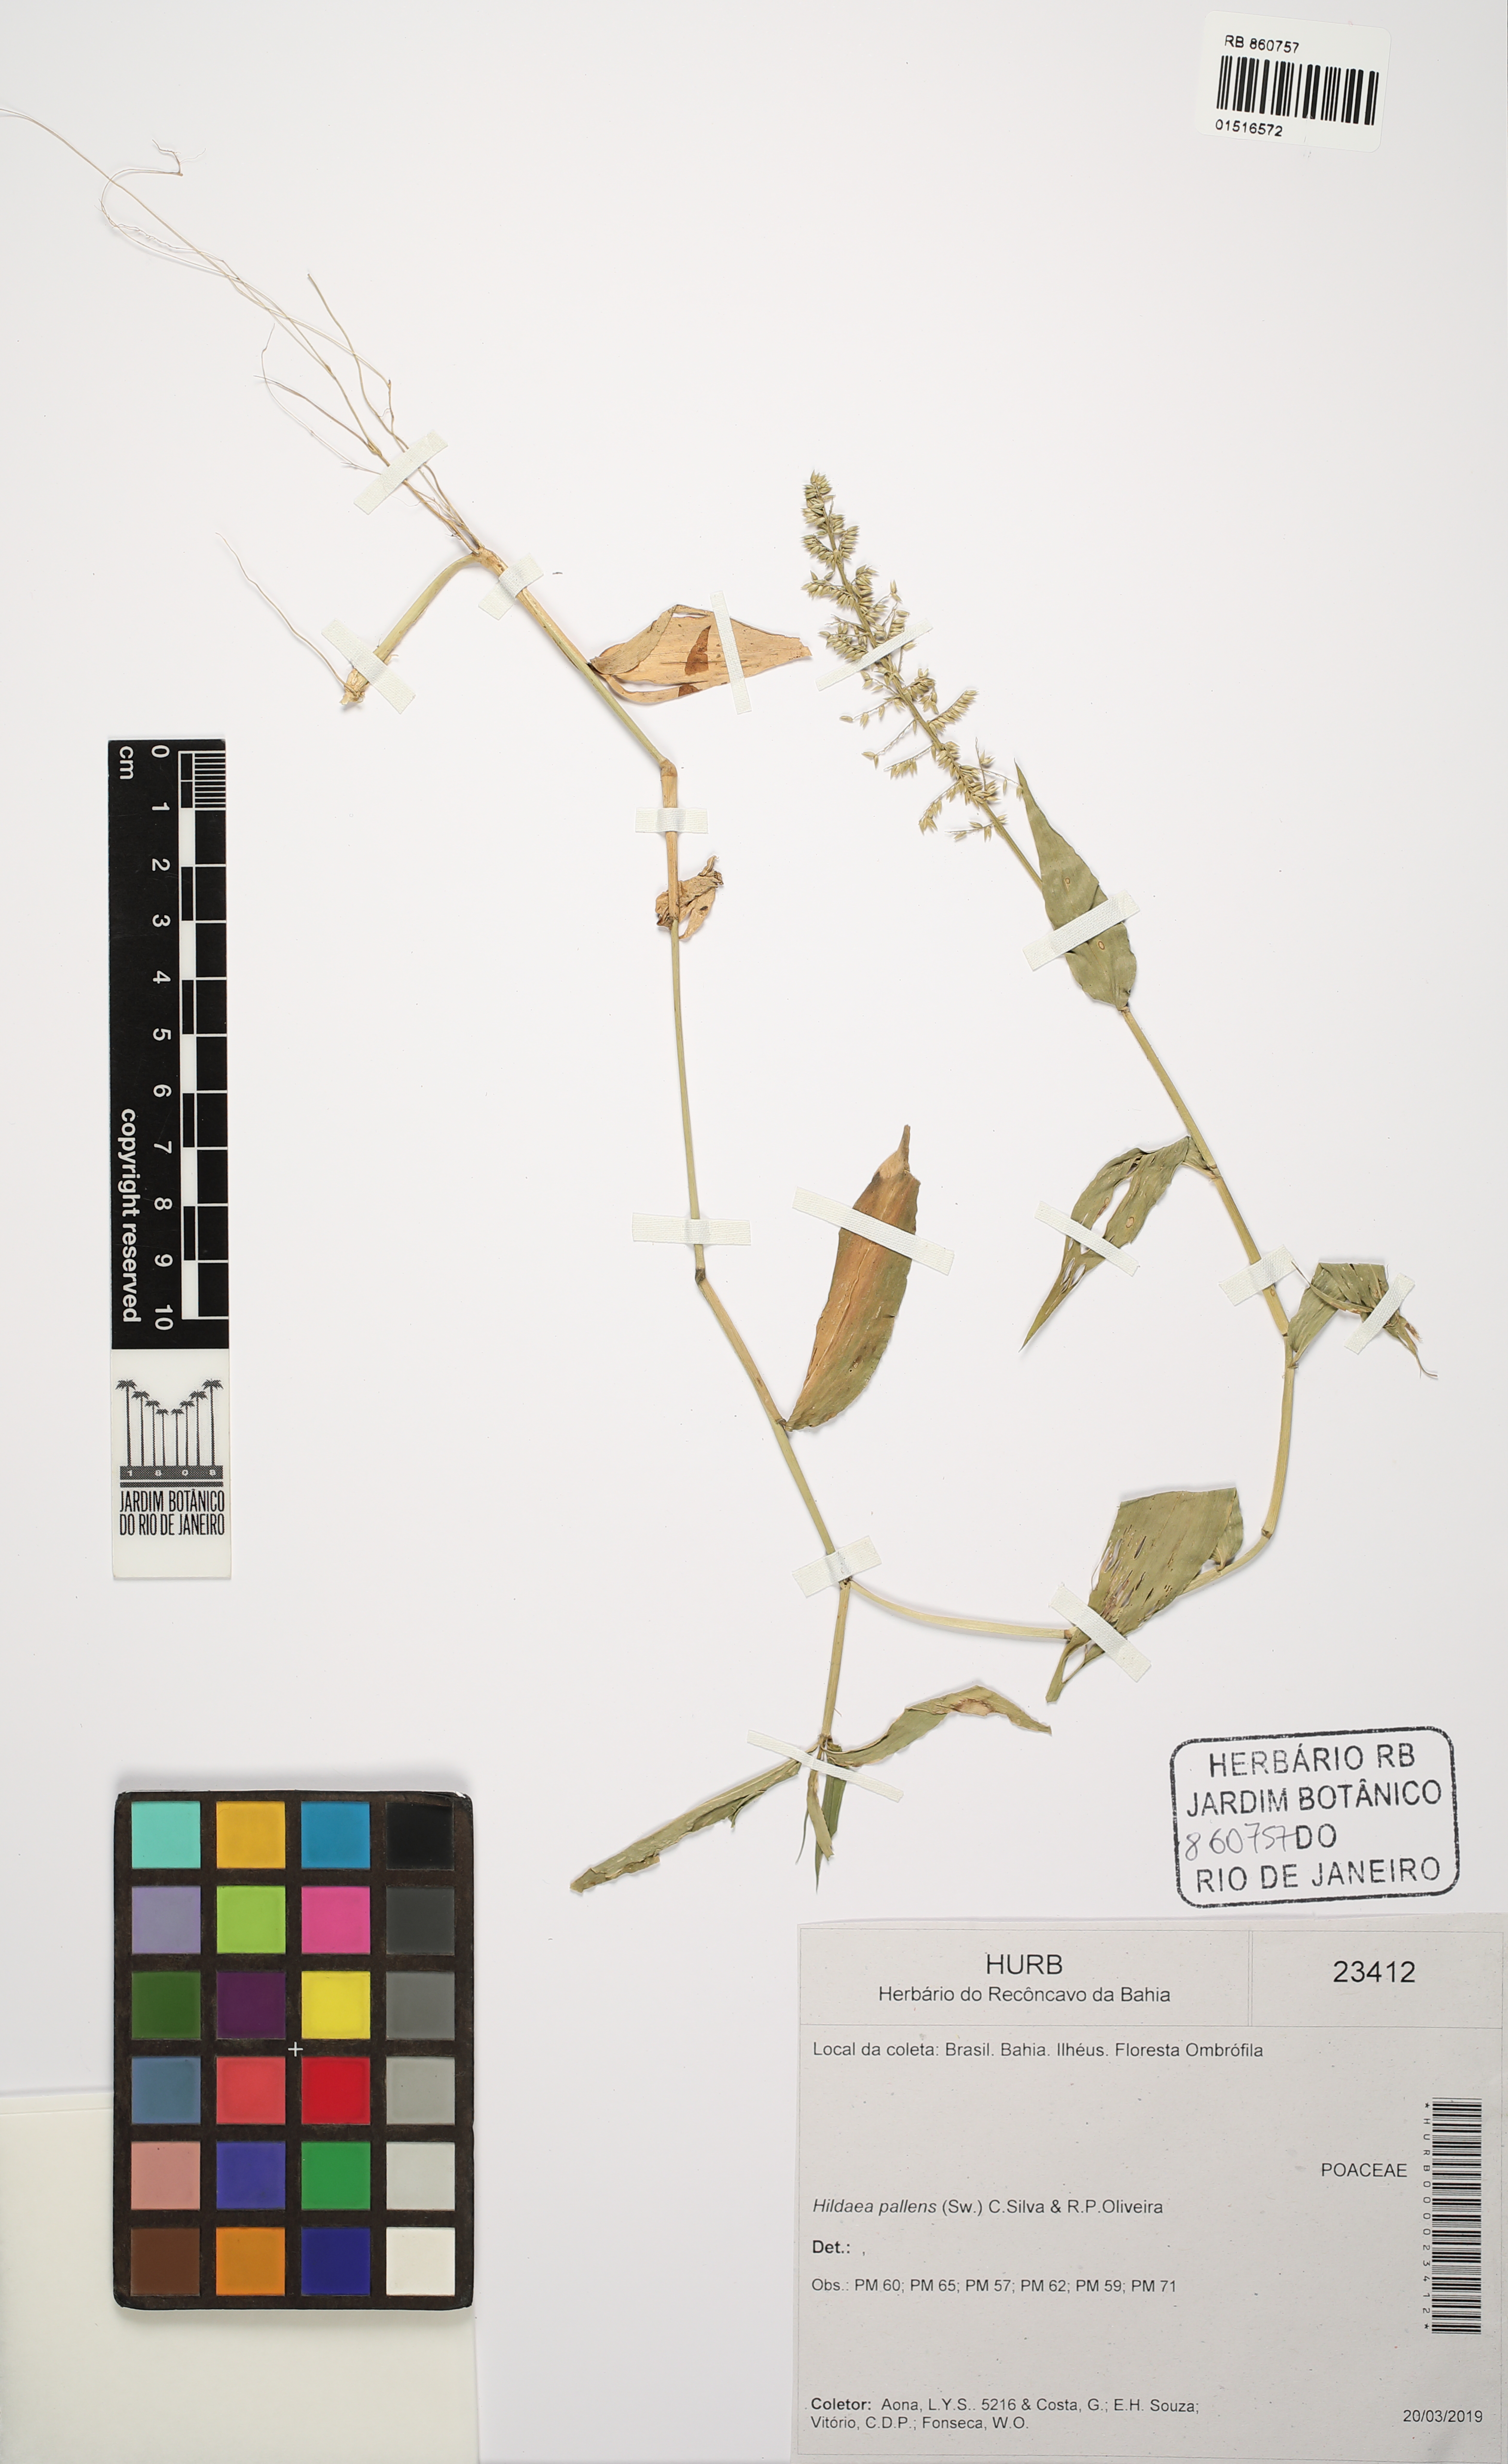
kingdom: Plantae
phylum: Tracheophyta
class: Liliopsida
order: Poales
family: Poaceae
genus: Ichnanthus
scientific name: Ichnanthus pallens
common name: Water grass
